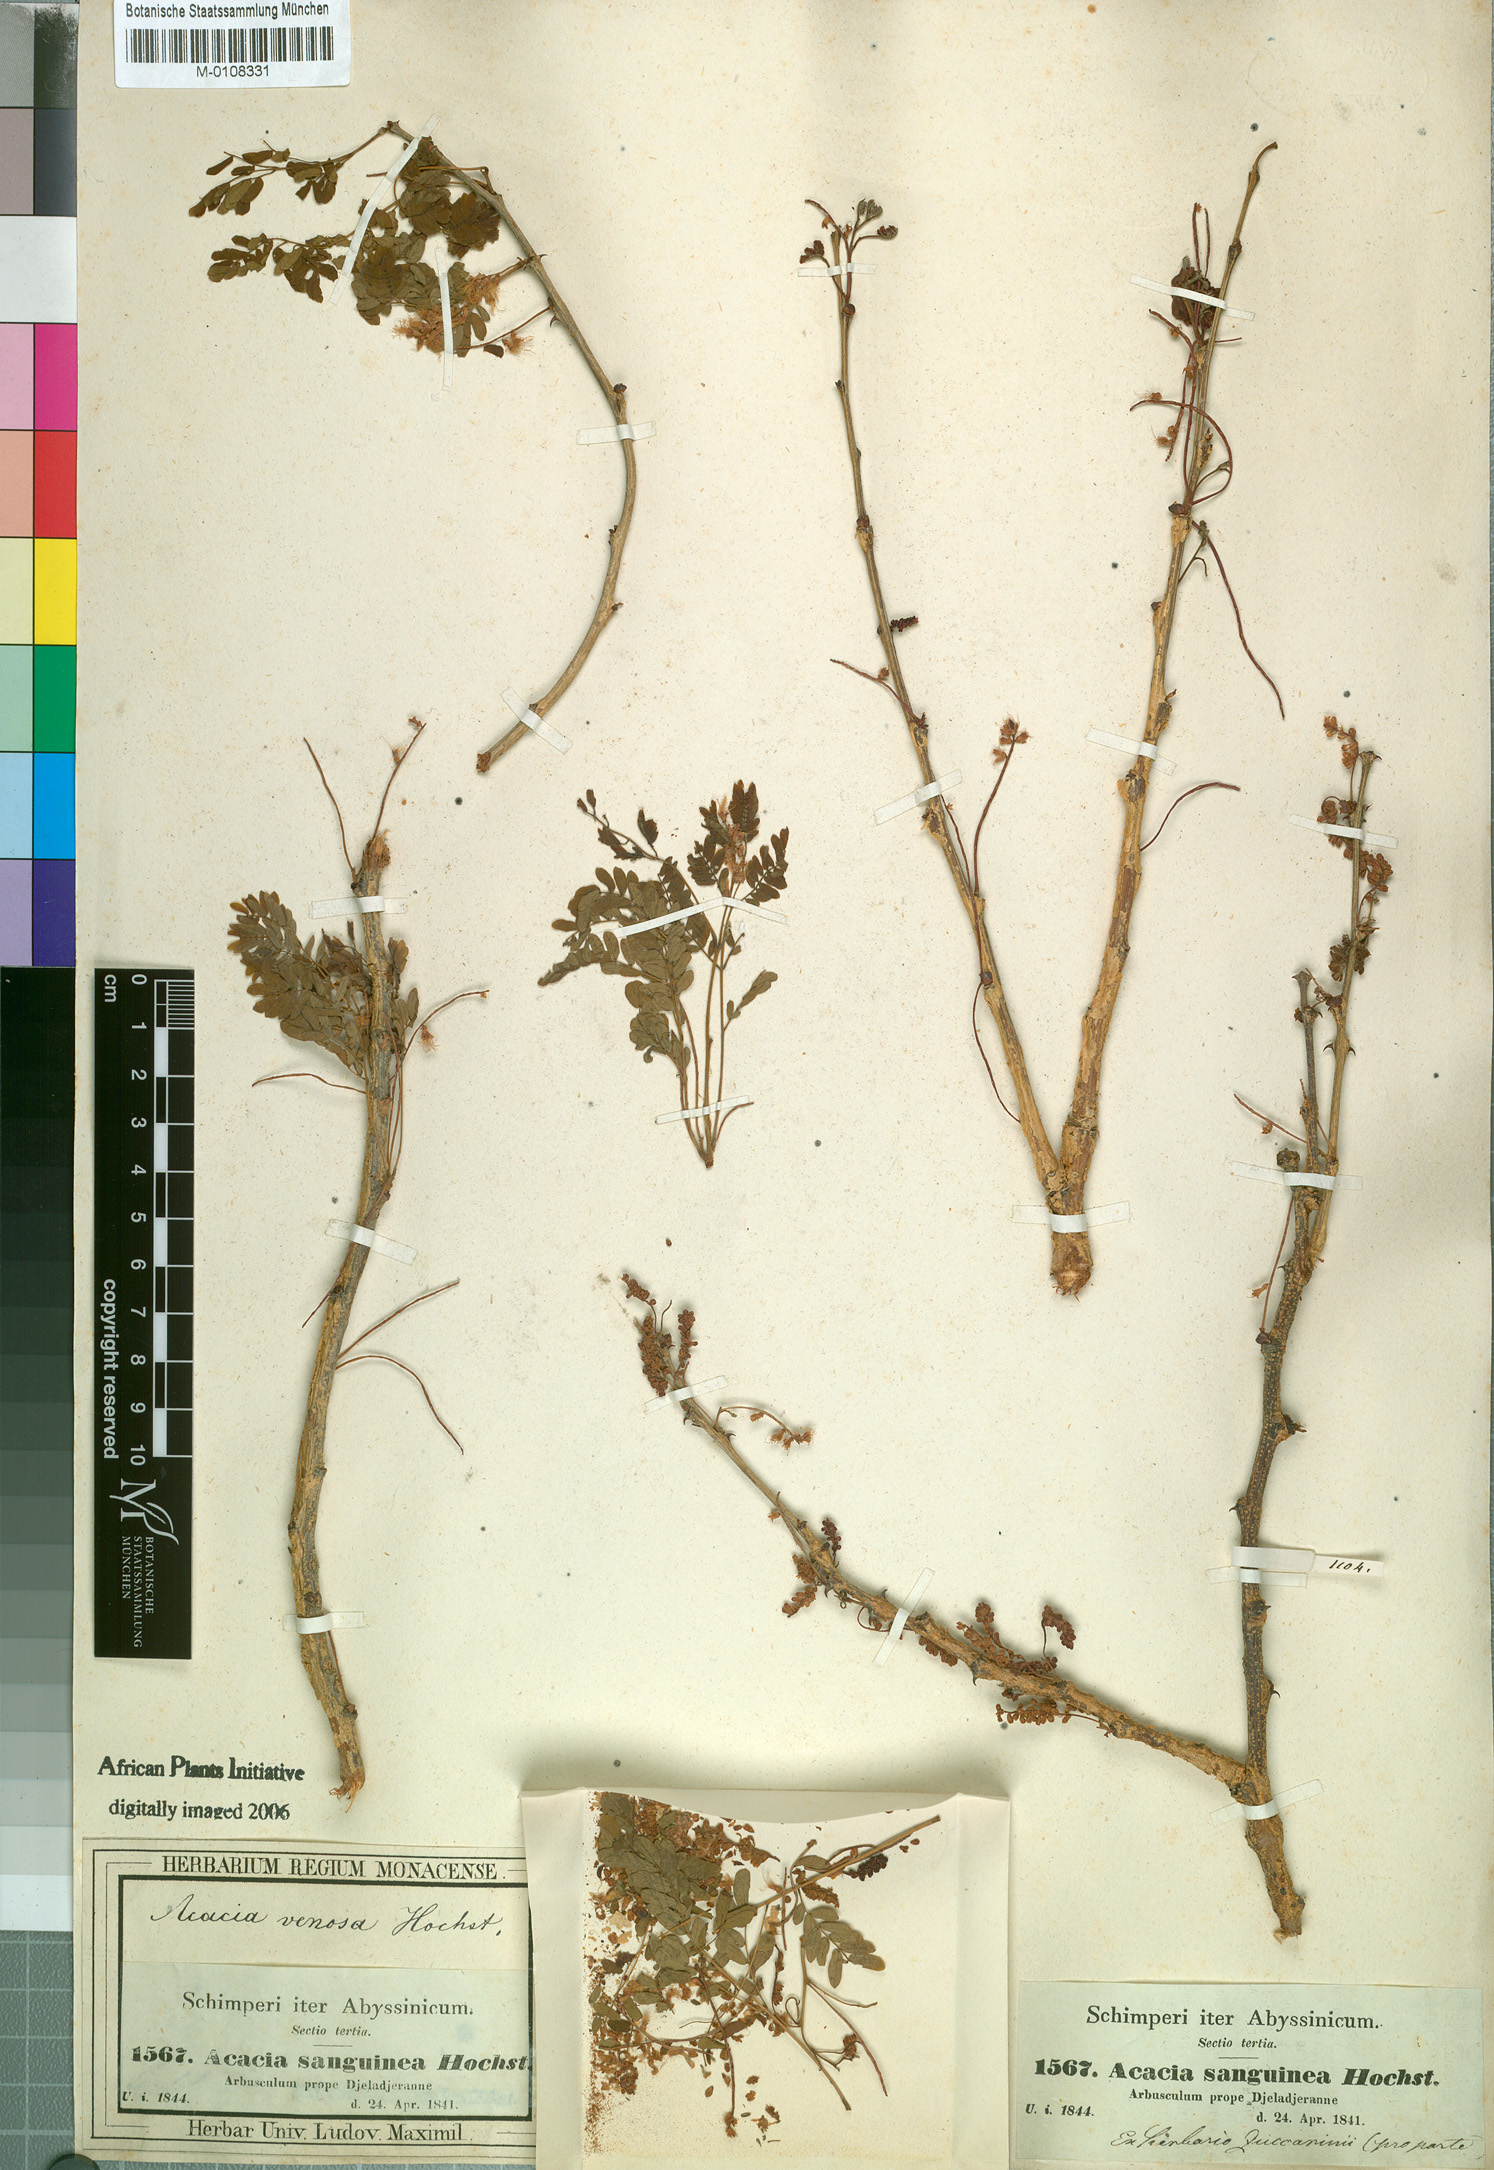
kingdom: Plantae
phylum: Tracheophyta
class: Magnoliopsida
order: Fabales
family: Fabaceae
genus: Senegalia
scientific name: Senegalia venosa
